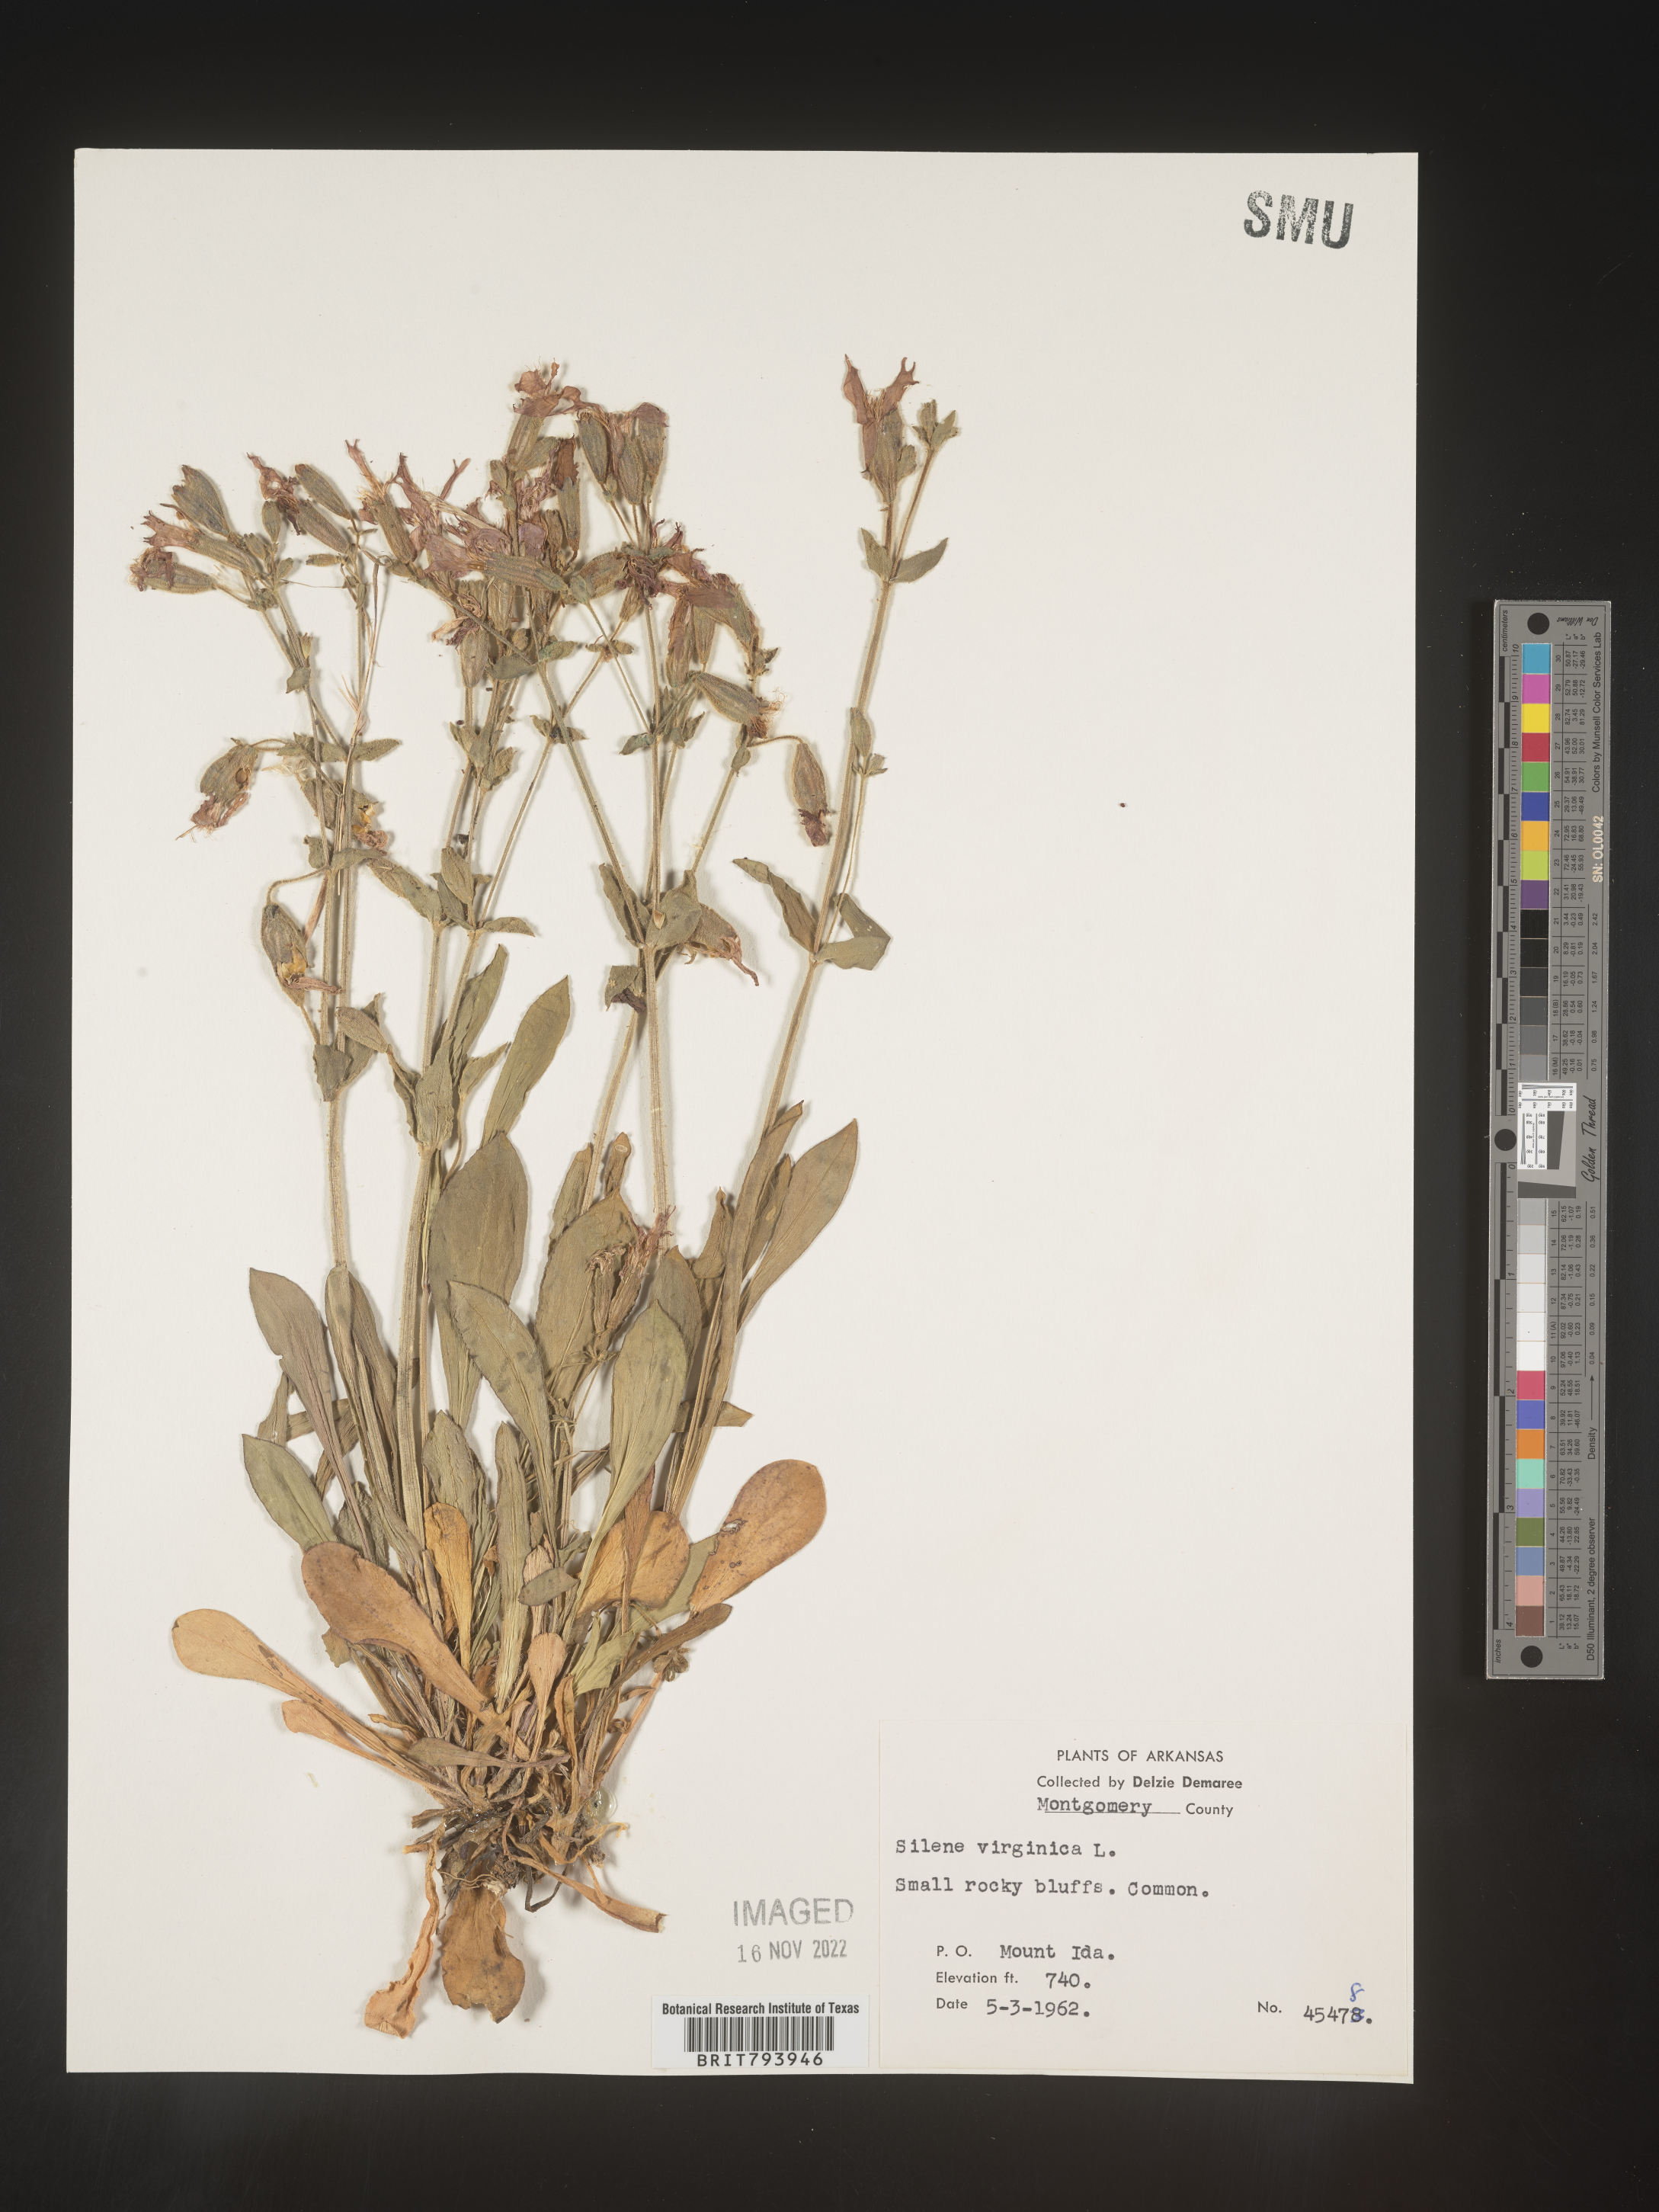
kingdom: Plantae
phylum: Tracheophyta
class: Magnoliopsida
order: Caryophyllales
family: Caryophyllaceae
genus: Silene
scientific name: Silene virginica
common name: Fire-pink
